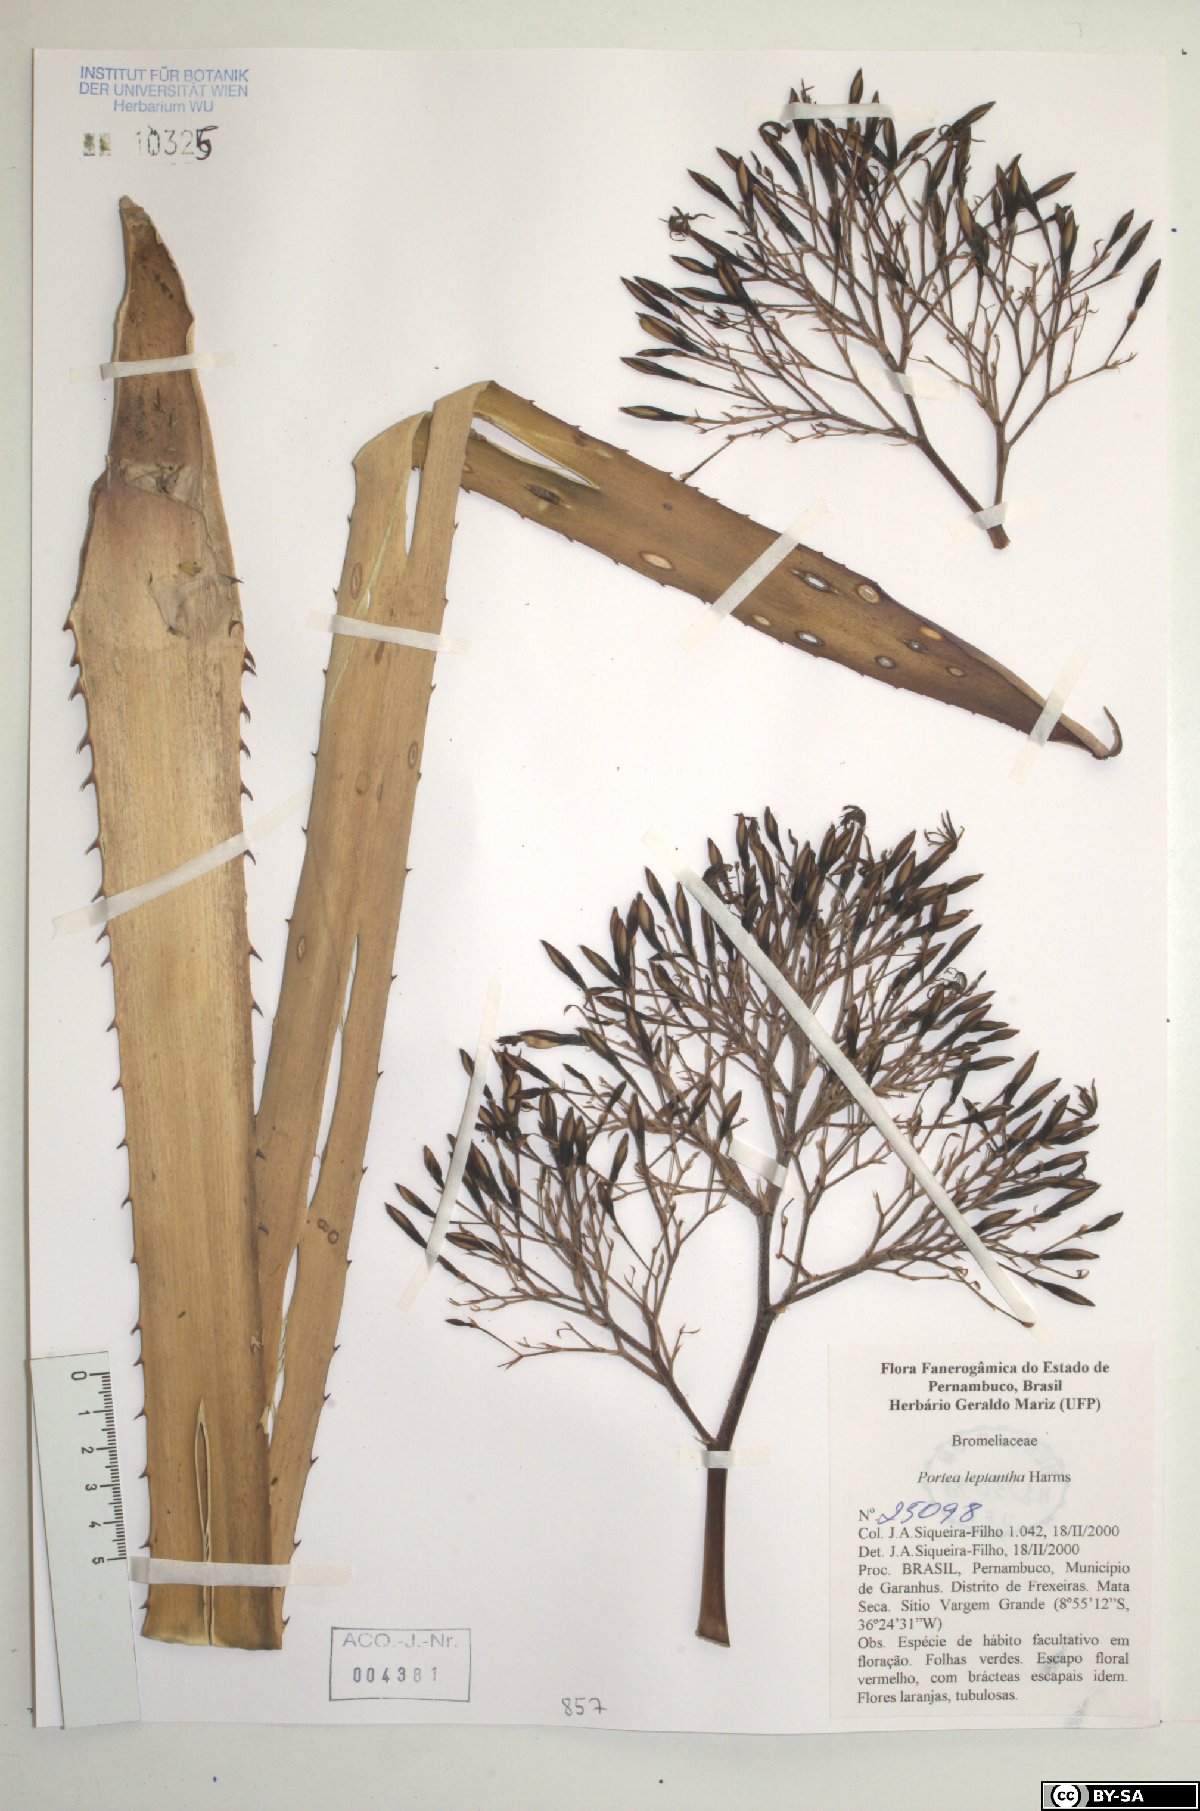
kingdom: Plantae
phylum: Tracheophyta
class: Liliopsida
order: Poales
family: Bromeliaceae
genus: Aechmea
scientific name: Aechmea leptantha
